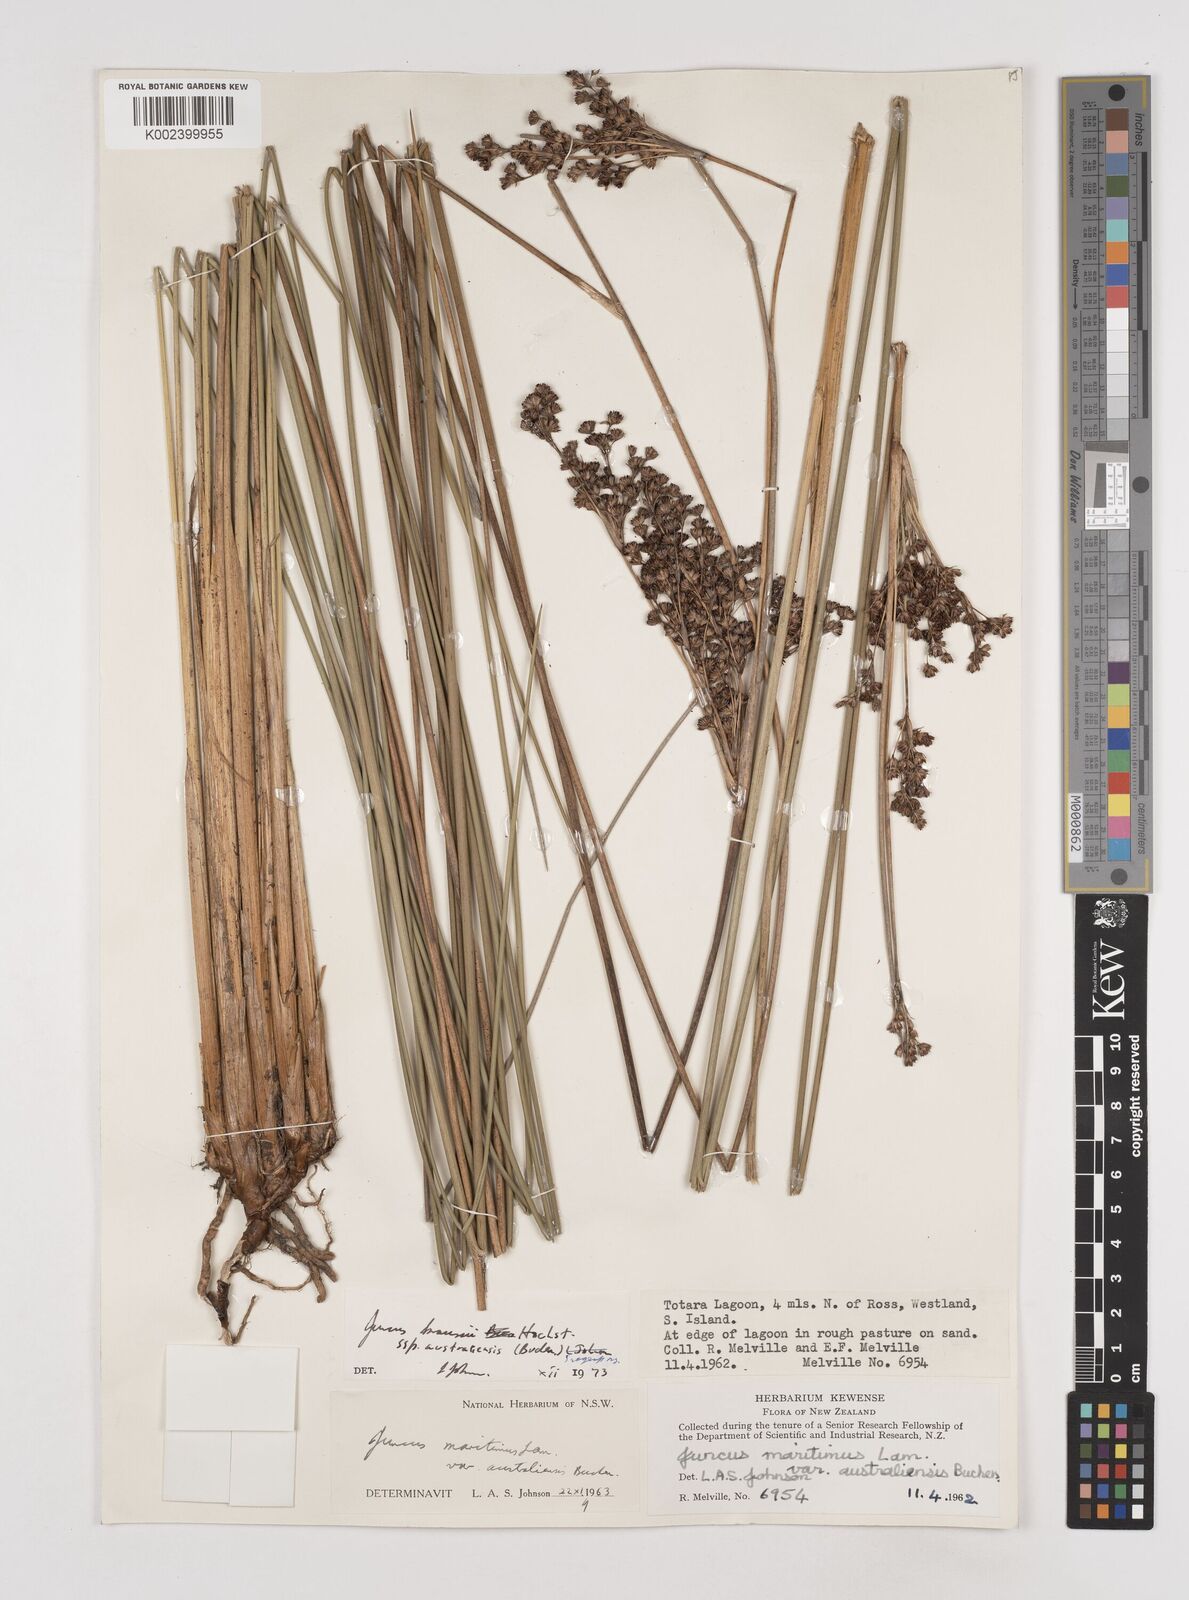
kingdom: Plantae
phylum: Tracheophyta
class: Liliopsida
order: Poales
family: Juncaceae
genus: Juncus
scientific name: Juncus kraussii
